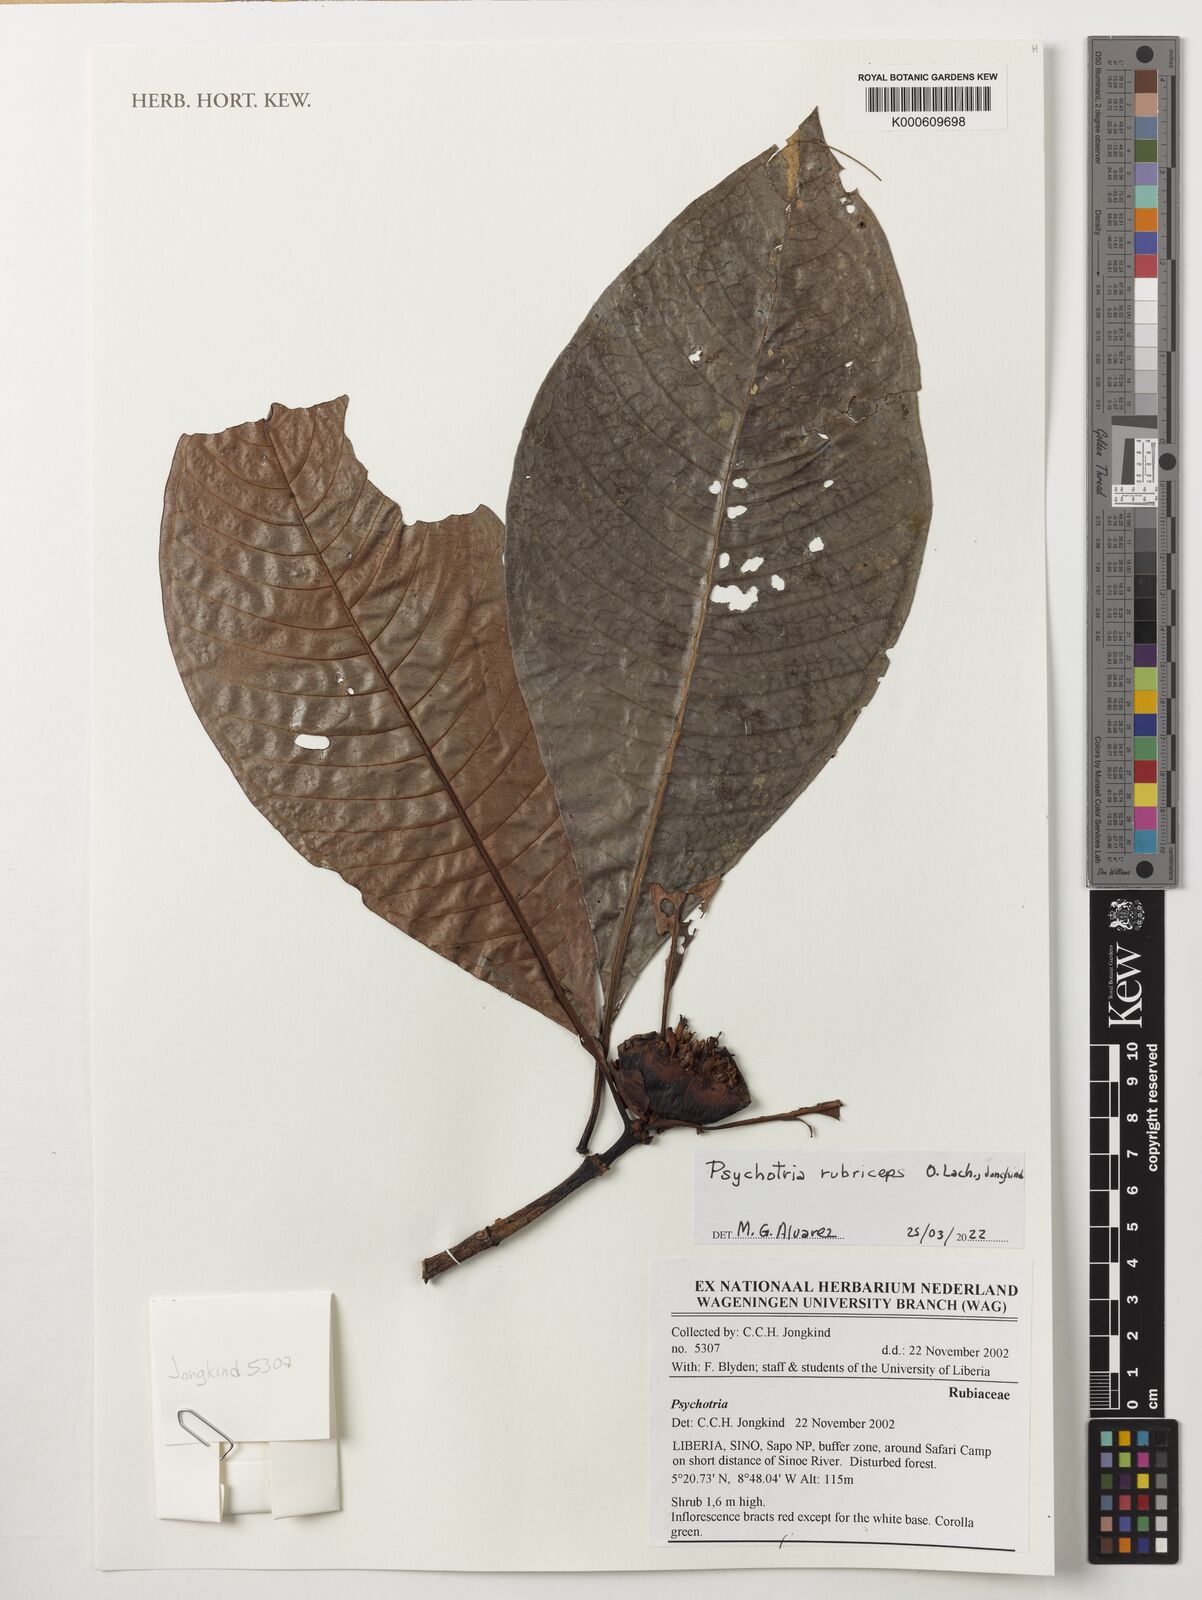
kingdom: Plantae
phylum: Tracheophyta
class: Magnoliopsida
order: Gentianales
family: Rubiaceae
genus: Psychotria
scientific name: Psychotria rubriceps
